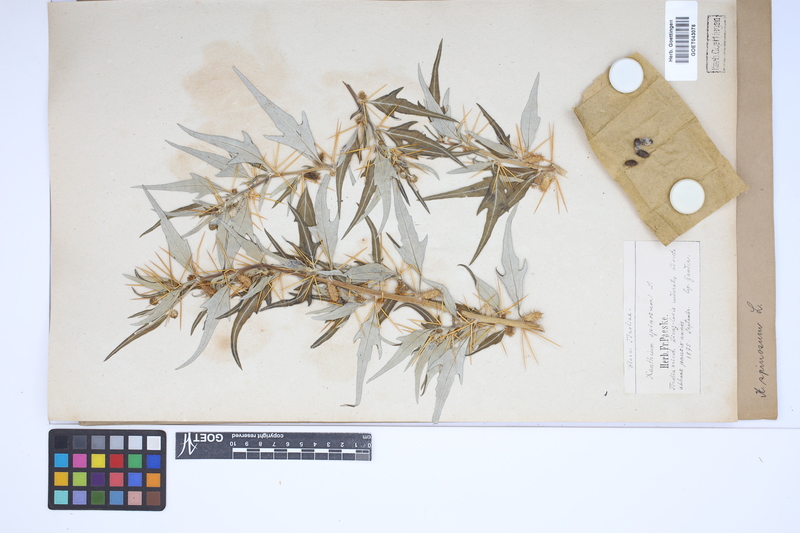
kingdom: Plantae
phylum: Tracheophyta
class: Magnoliopsida
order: Asterales
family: Asteraceae
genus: Xanthium
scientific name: Xanthium spinosum
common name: Spiny cocklebur
